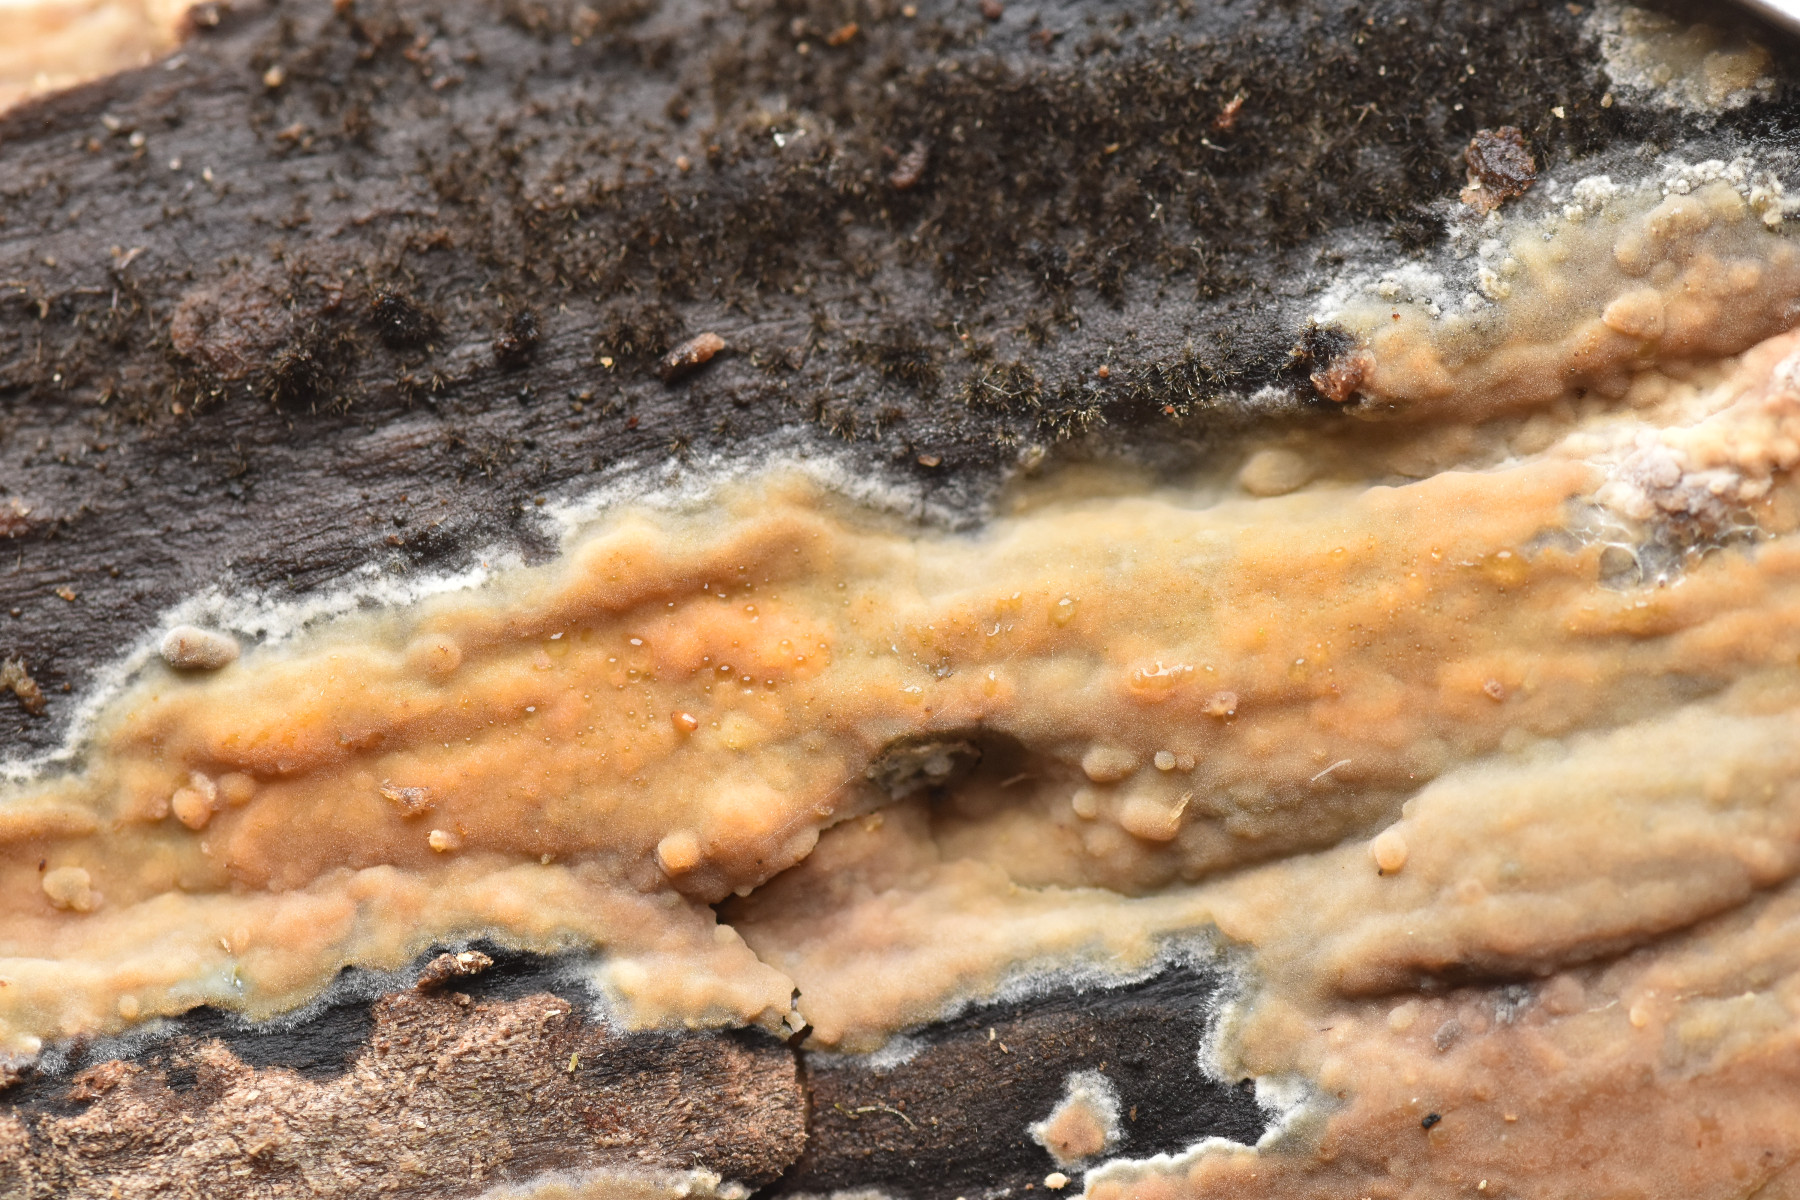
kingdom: Fungi
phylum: Basidiomycota
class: Agaricomycetes
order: Russulales
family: Peniophoraceae
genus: Peniophora
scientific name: Peniophora incarnata
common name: laksefarvet voksskind
